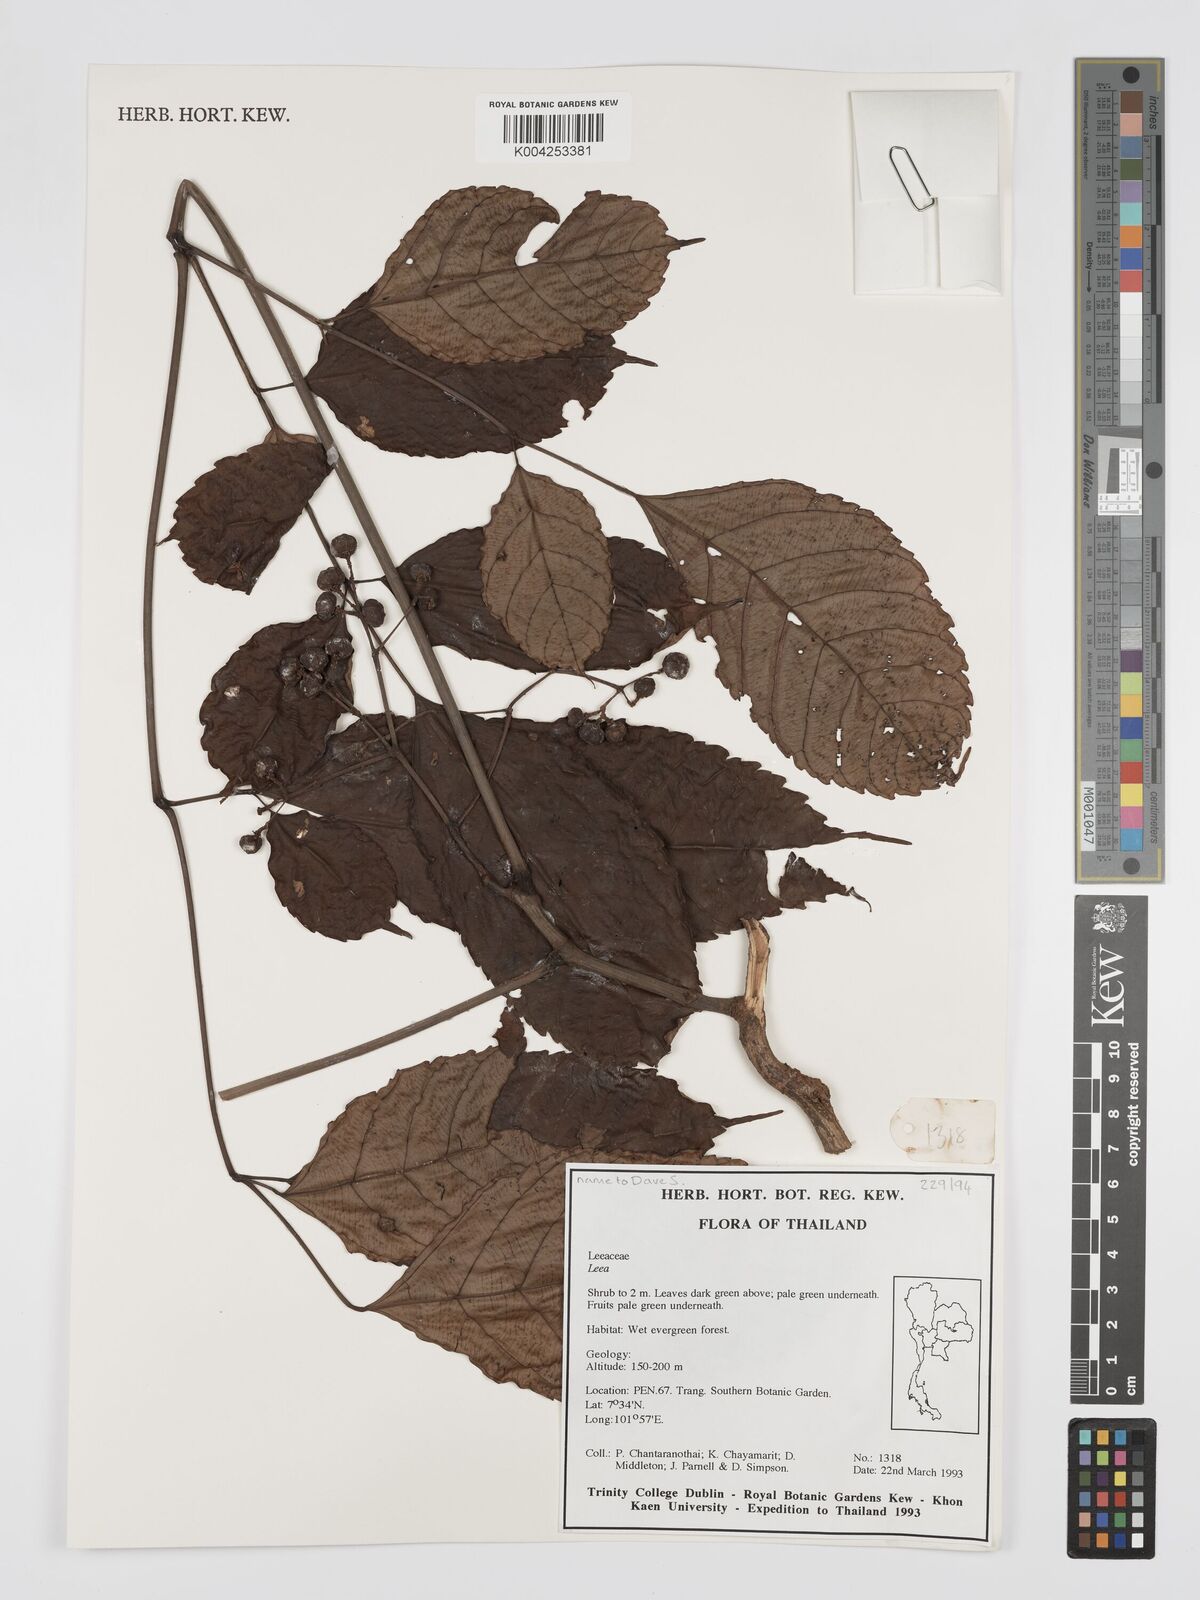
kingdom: Plantae
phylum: Tracheophyta
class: Magnoliopsida
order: Vitales
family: Vitaceae
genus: Leea
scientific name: Leea
